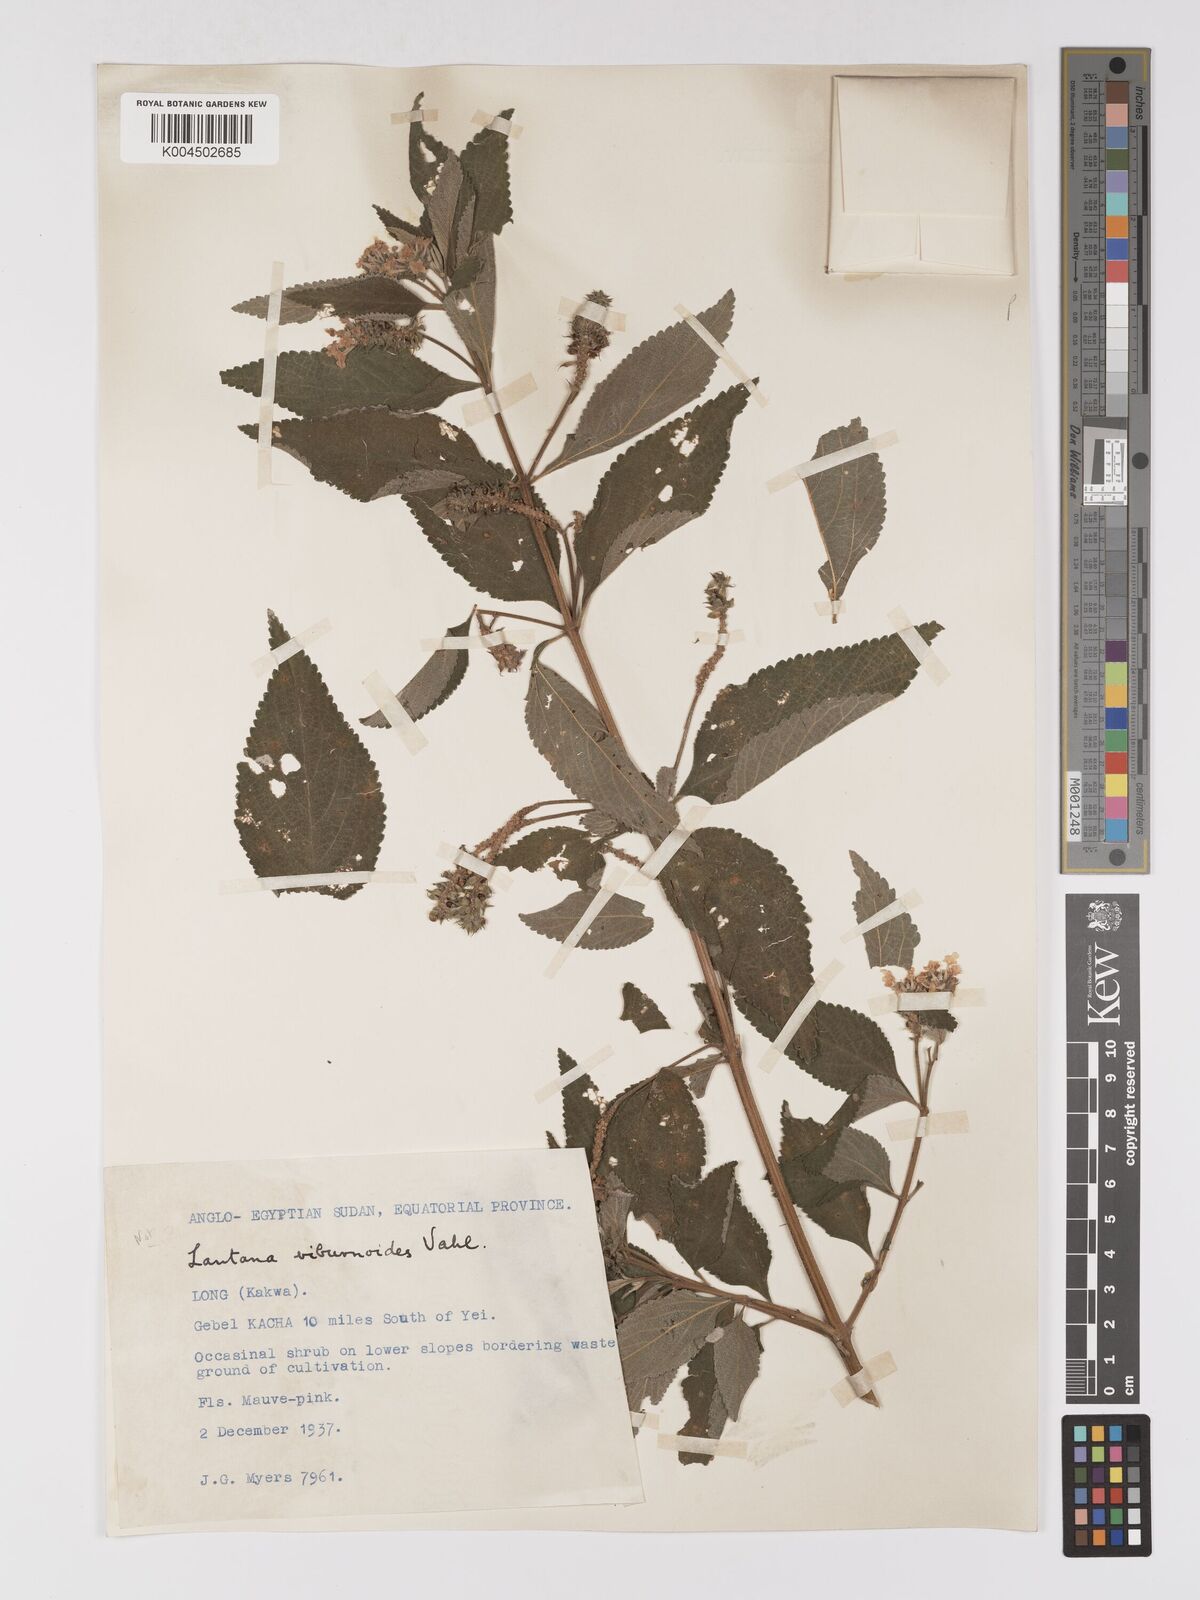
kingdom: Plantae
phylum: Tracheophyta
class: Magnoliopsida
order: Lamiales
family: Verbenaceae
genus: Lantana
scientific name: Lantana trifolia
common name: Sweet-sage
